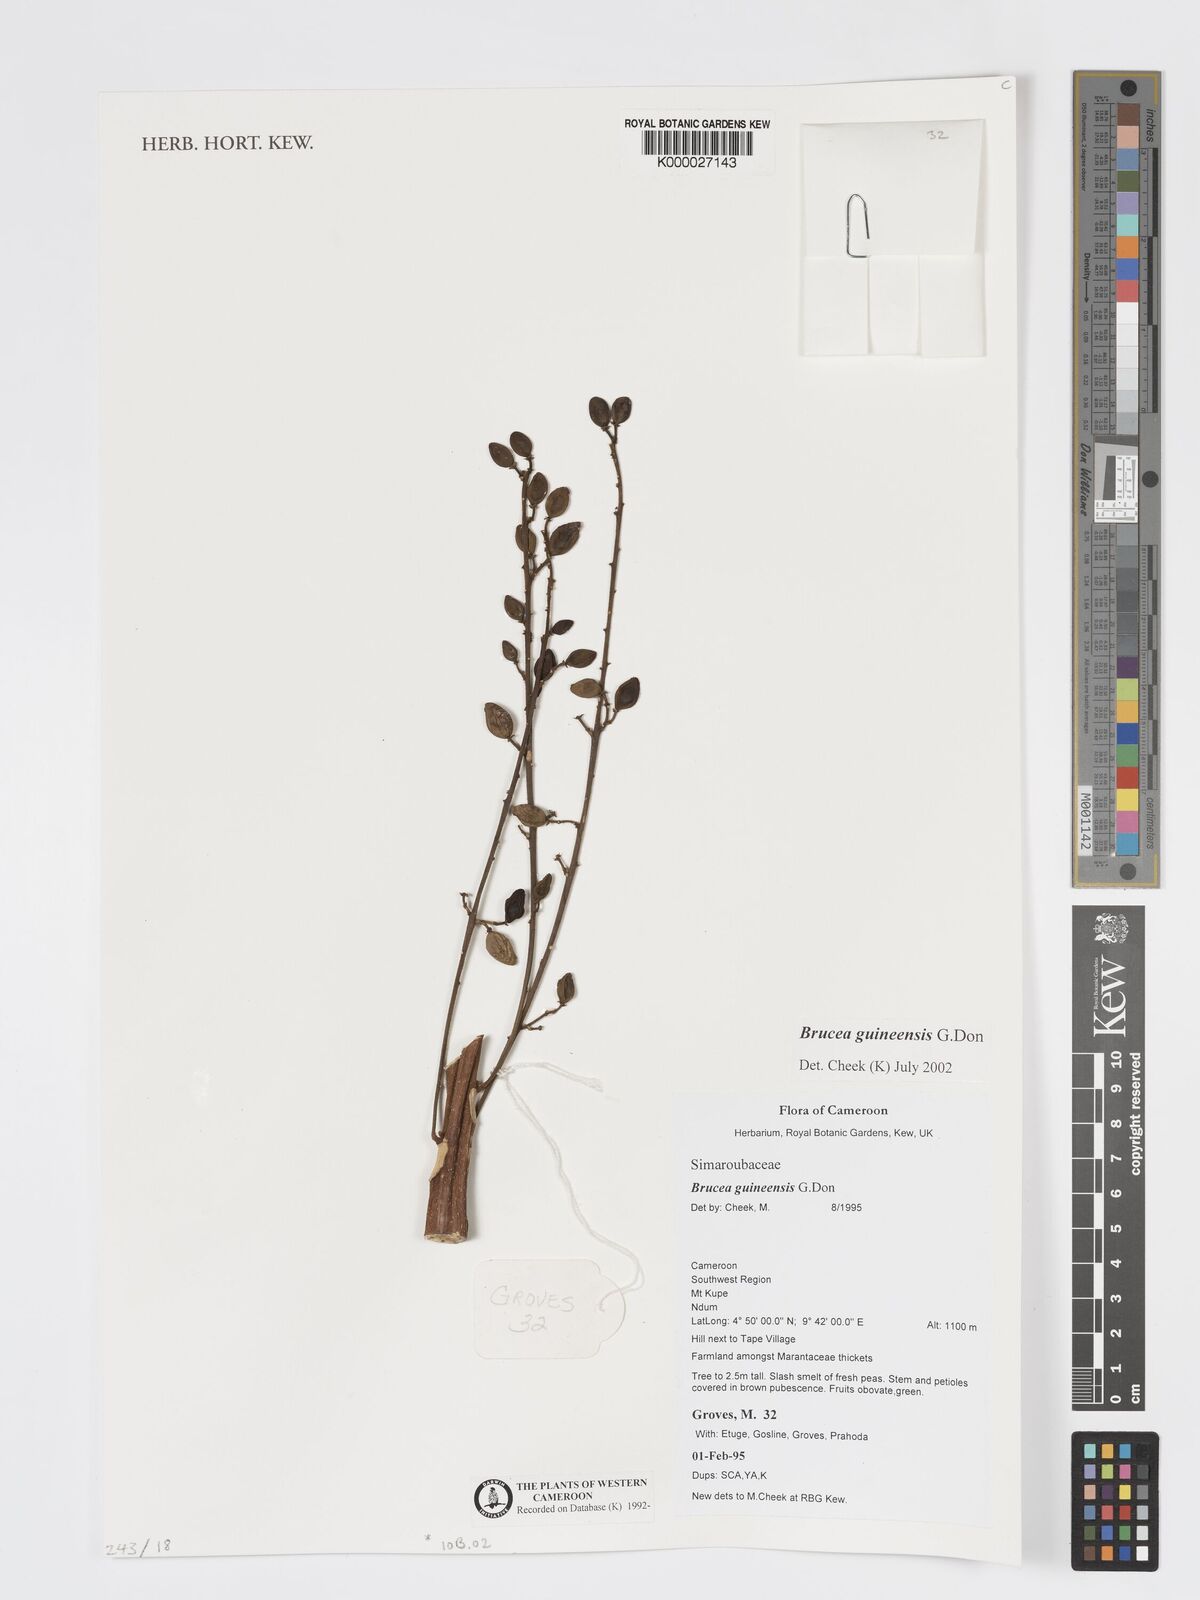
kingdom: Plantae
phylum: Tracheophyta
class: Magnoliopsida
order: Sapindales
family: Anacardiaceae
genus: Trichoscypha
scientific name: Trichoscypha smythei
